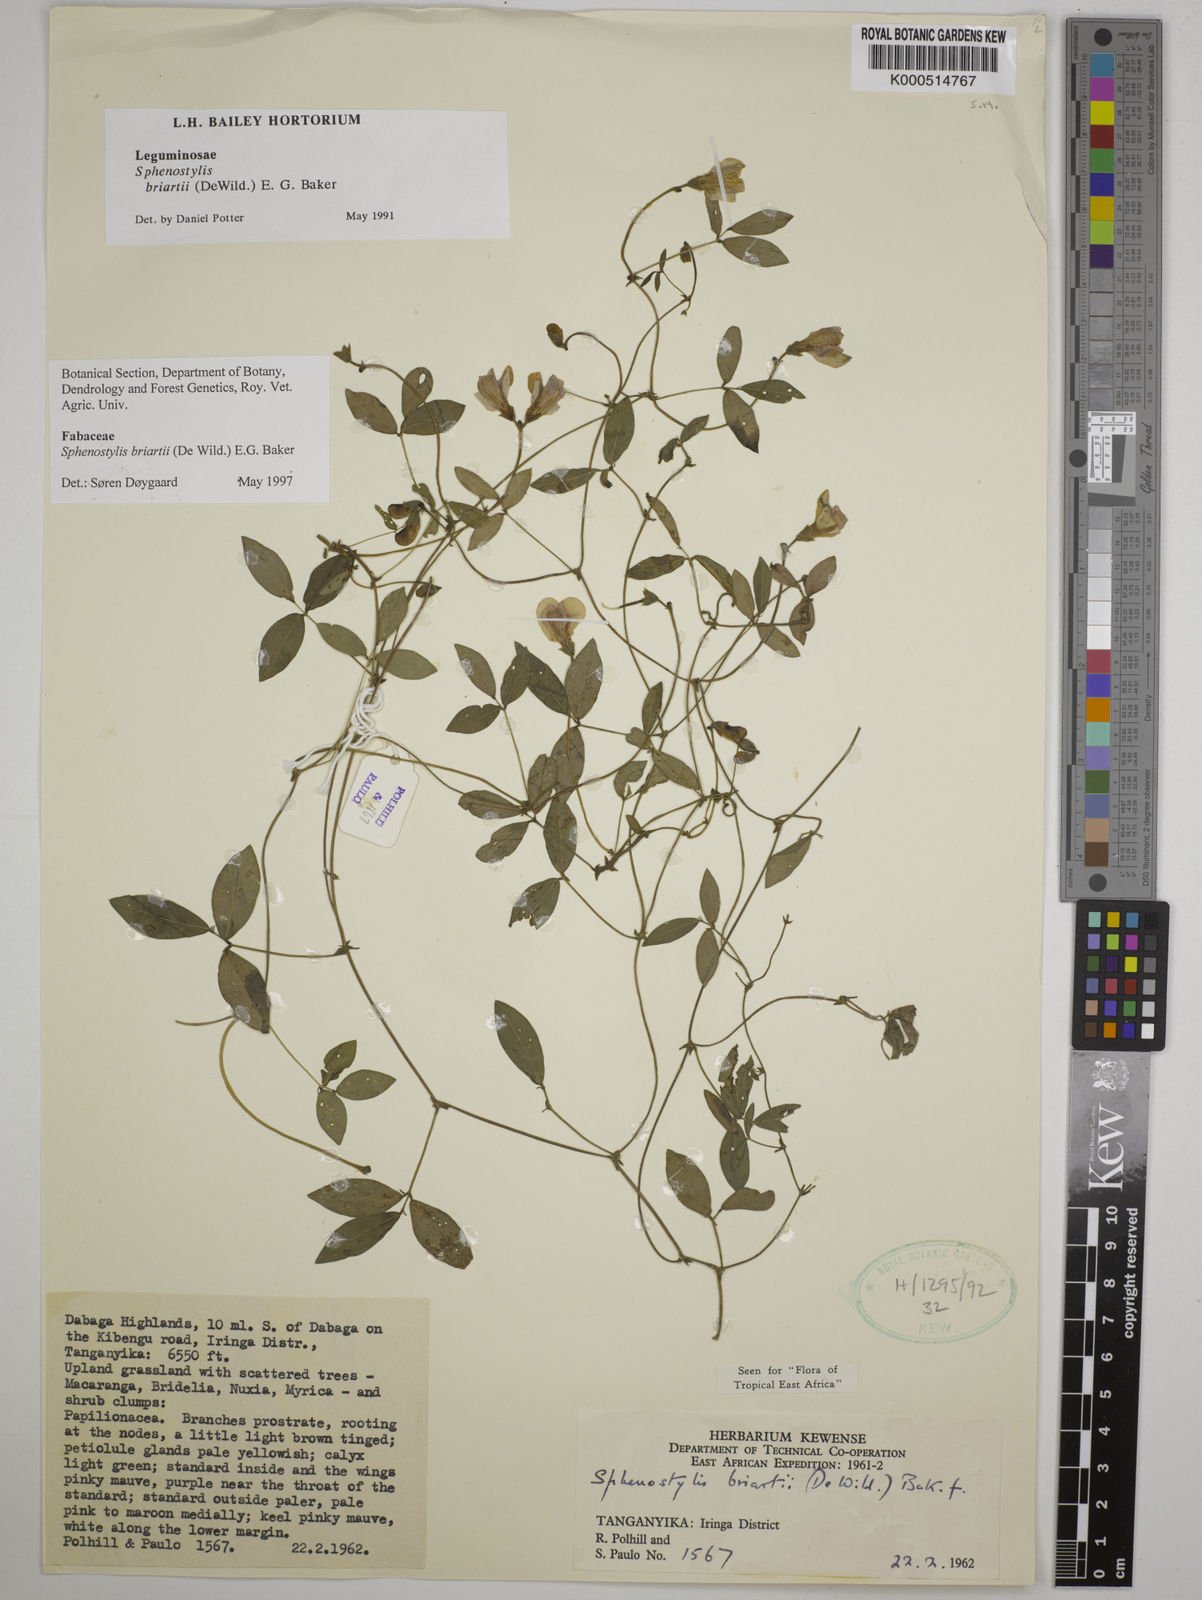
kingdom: Plantae
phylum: Tracheophyta
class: Magnoliopsida
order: Fabales
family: Fabaceae
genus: Sphenostylis
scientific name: Sphenostylis briartii
